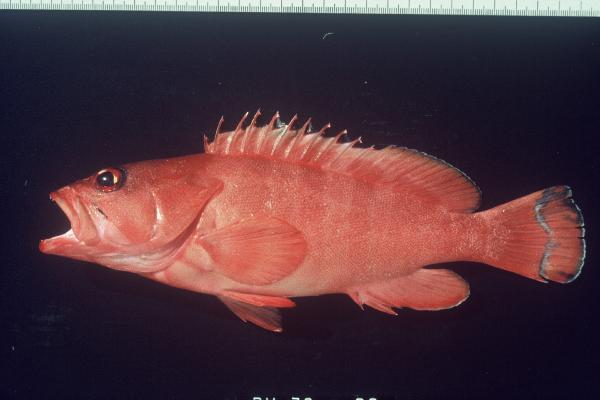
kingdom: Animalia
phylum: Chordata
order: Perciformes
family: Serranidae
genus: Epinephelus
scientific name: Epinephelus fasciatus
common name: Blacktip grouper
